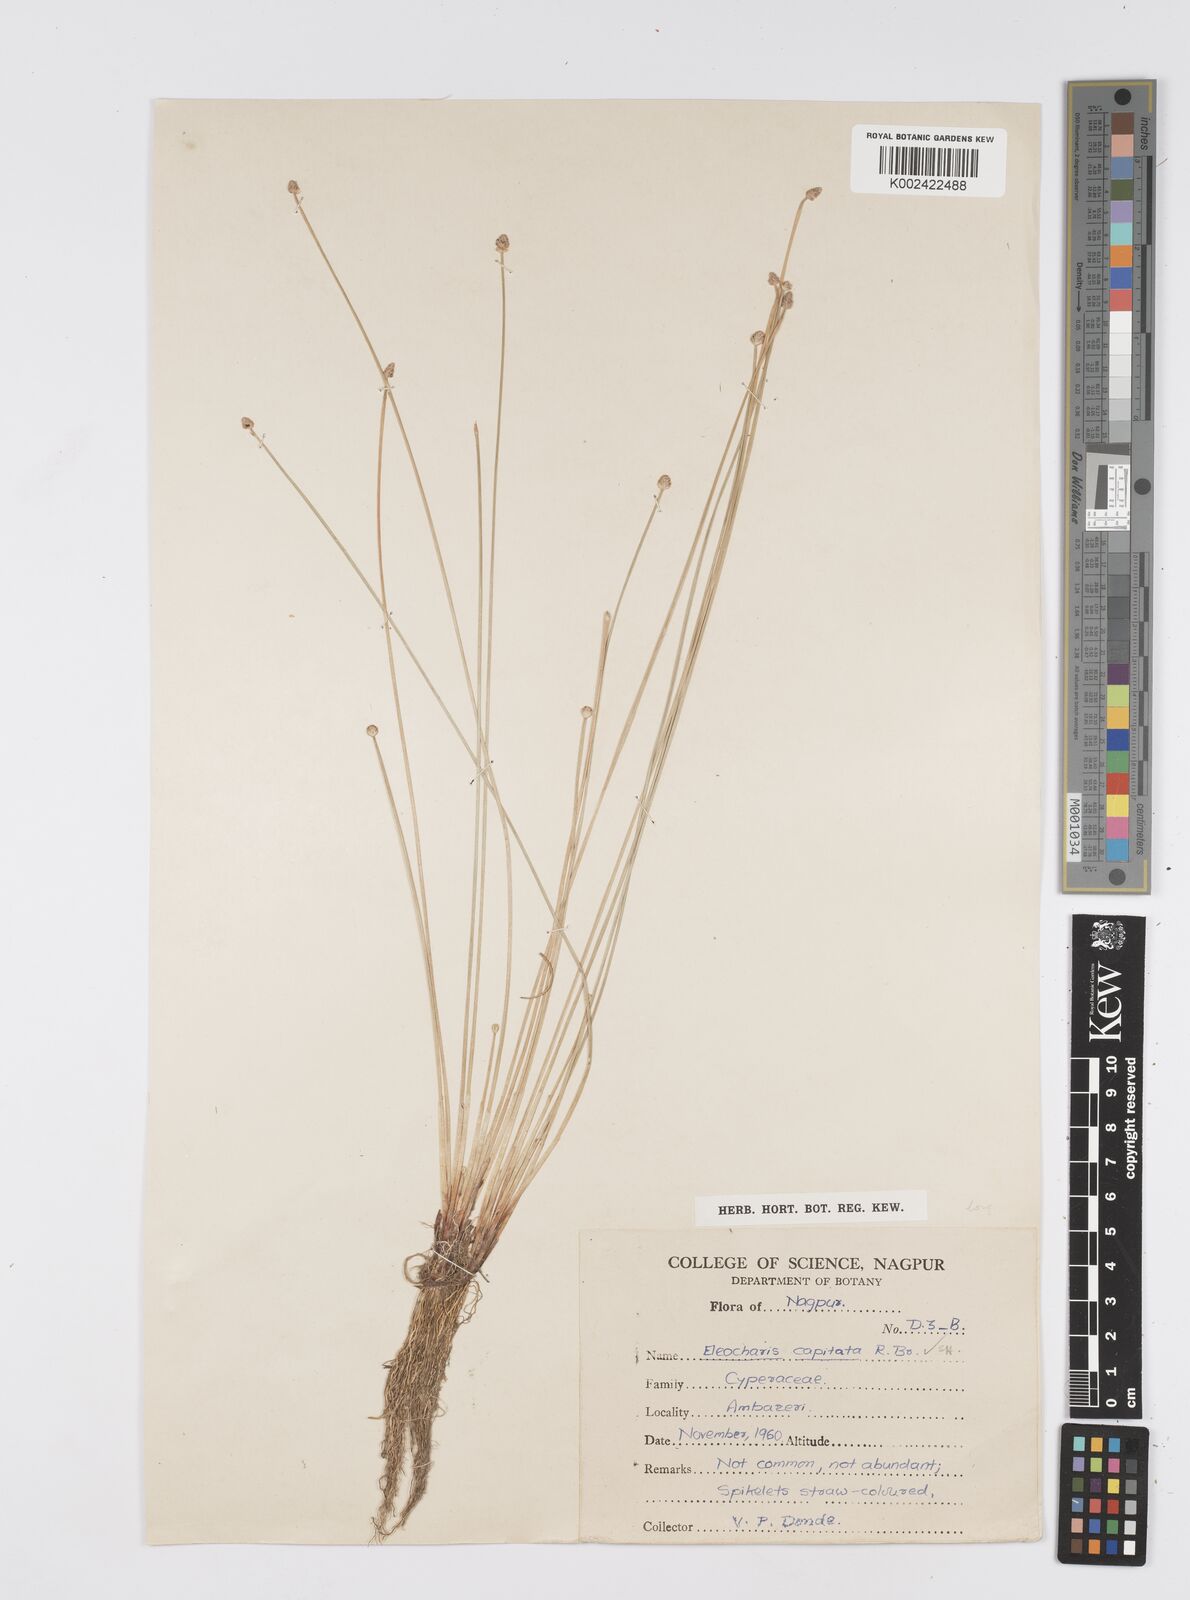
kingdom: Plantae
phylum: Tracheophyta
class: Liliopsida
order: Poales
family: Cyperaceae
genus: Eleocharis
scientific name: Eleocharis geniculata
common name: Canada spikesedge
